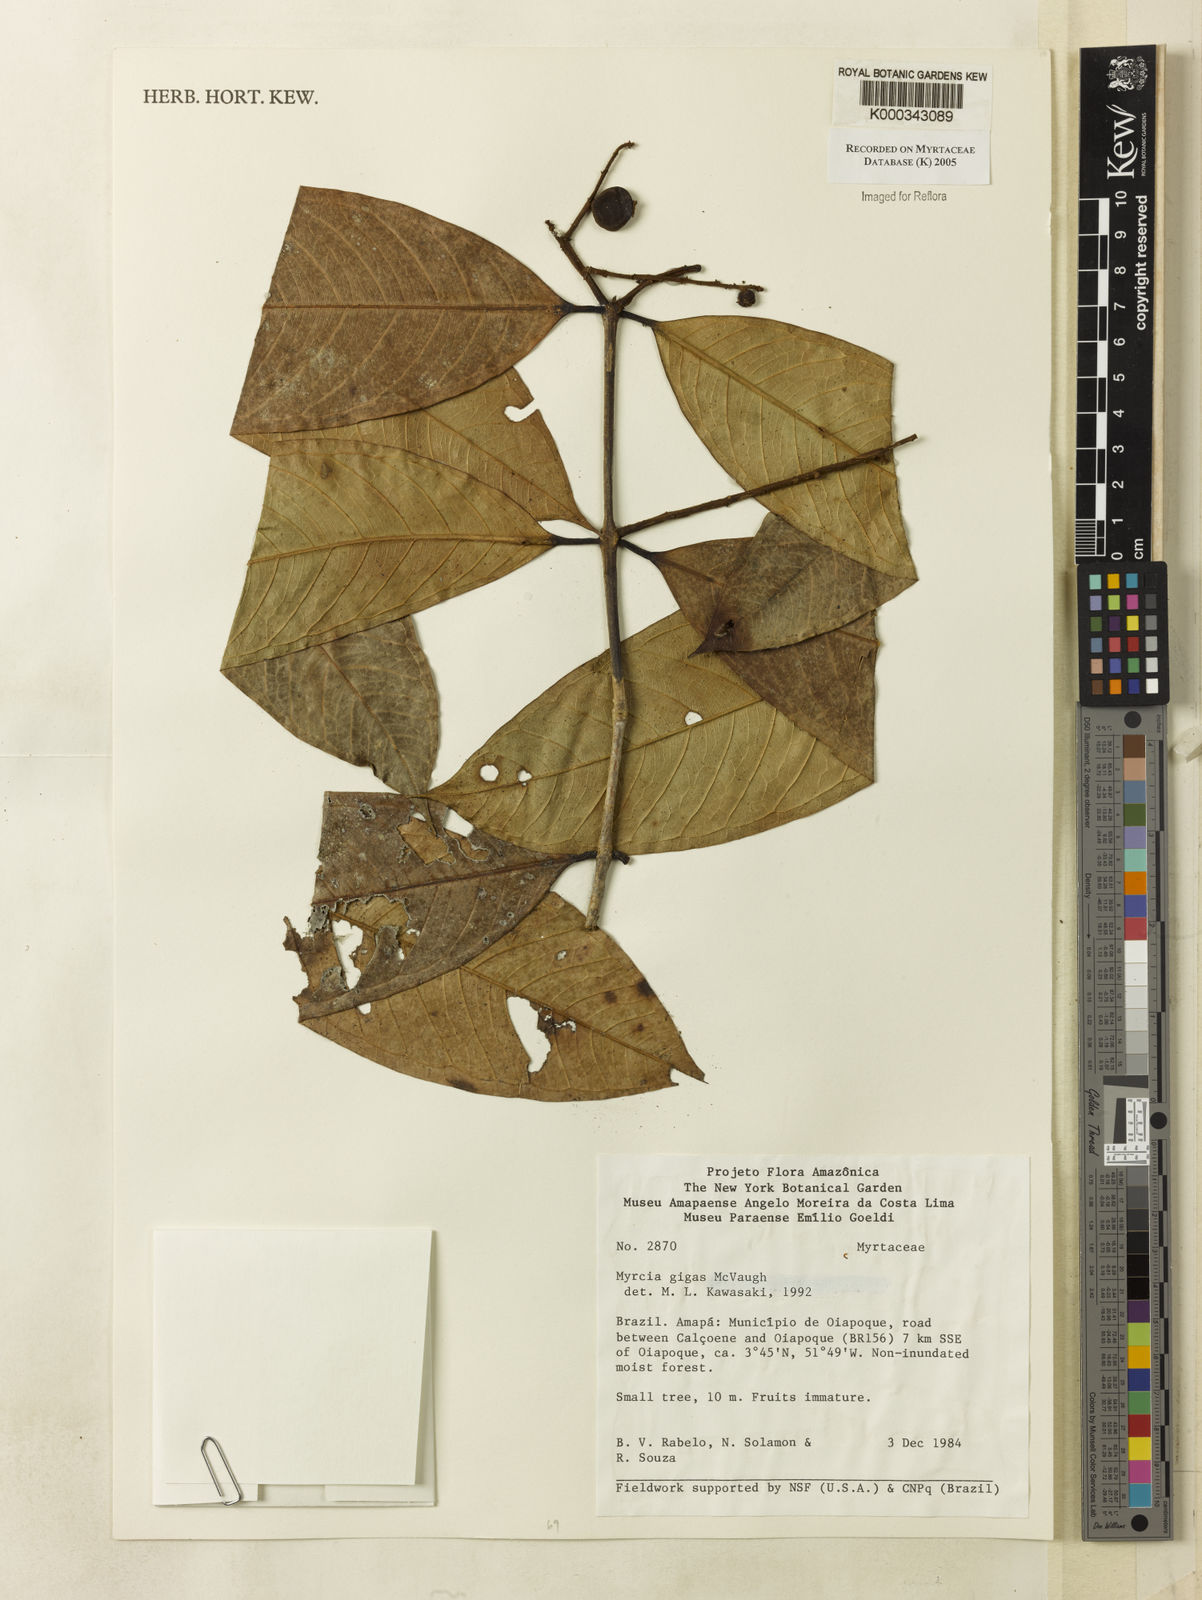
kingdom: Plantae
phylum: Tracheophyta
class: Magnoliopsida
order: Myrtales
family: Myrtaceae
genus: Myrcia
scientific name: Myrcia gigas
